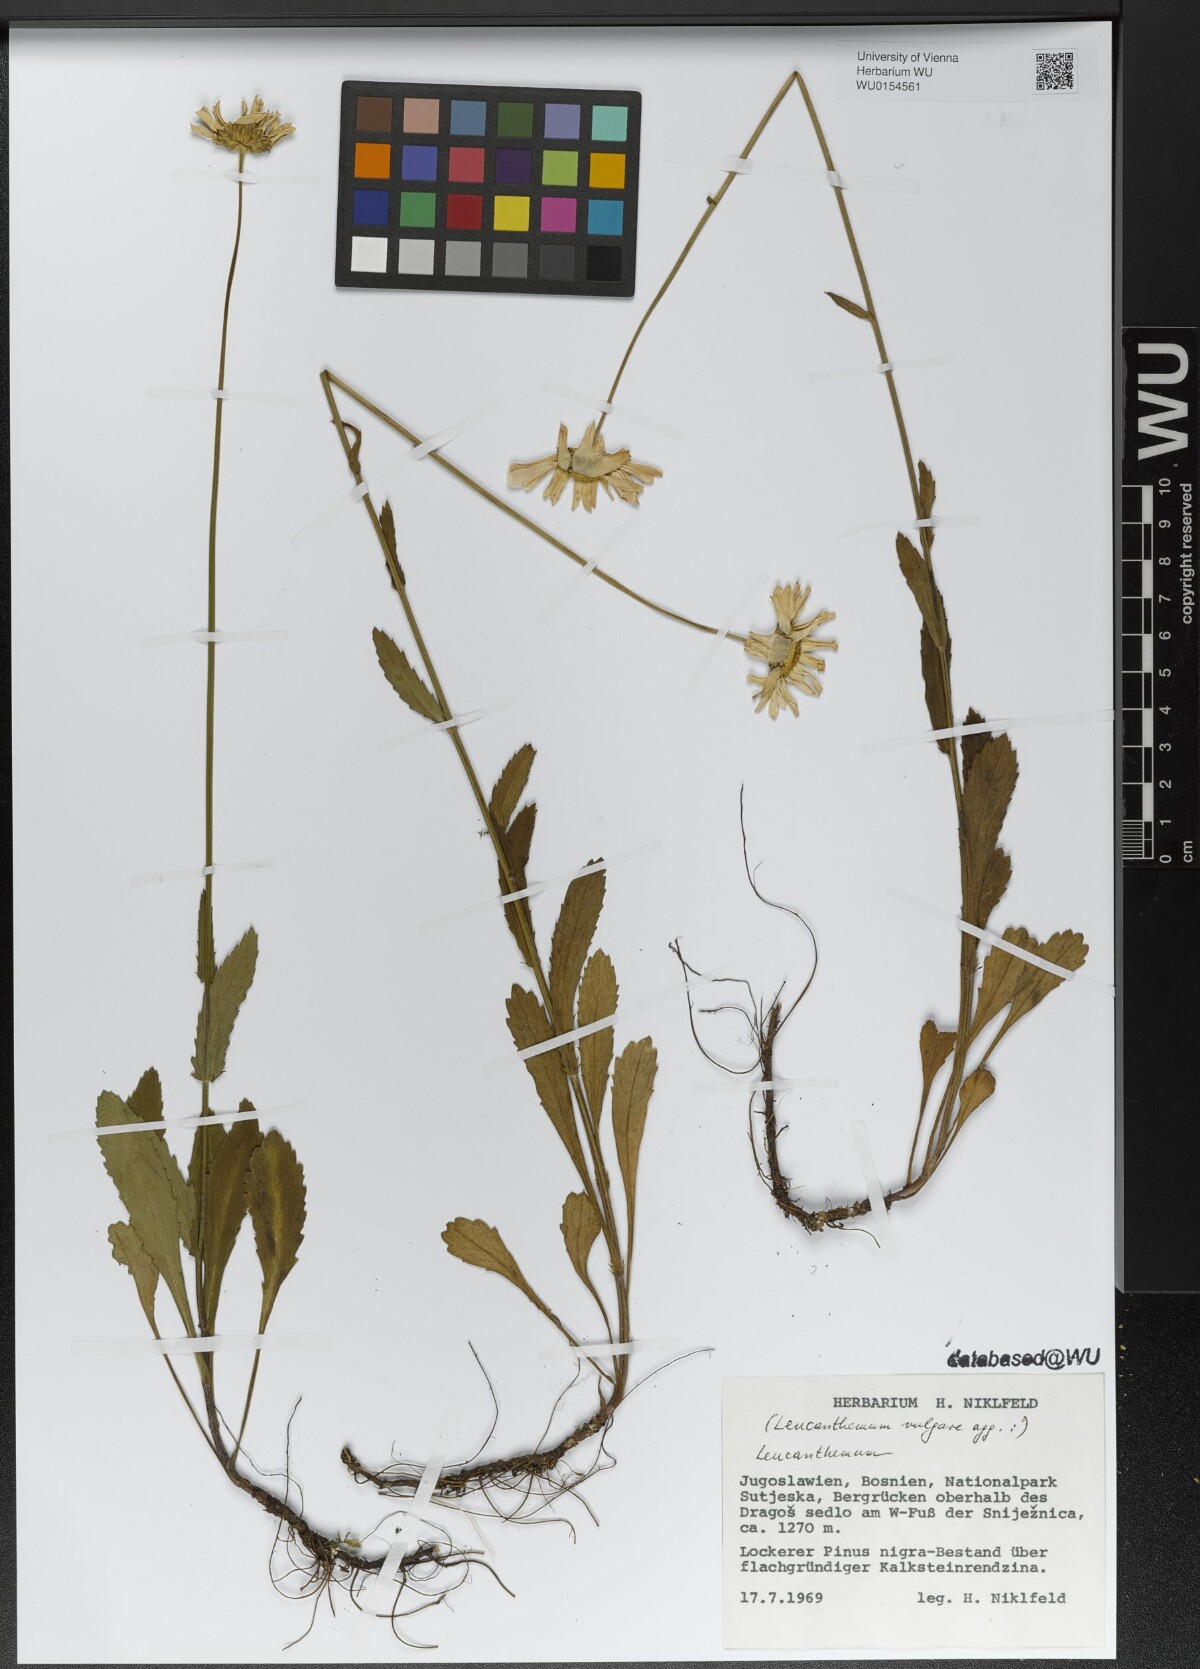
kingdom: Plantae
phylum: Tracheophyta
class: Magnoliopsida
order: Asterales
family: Asteraceae
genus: Leucanthemum
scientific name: Leucanthemum vulgare
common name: Oxeye daisy
